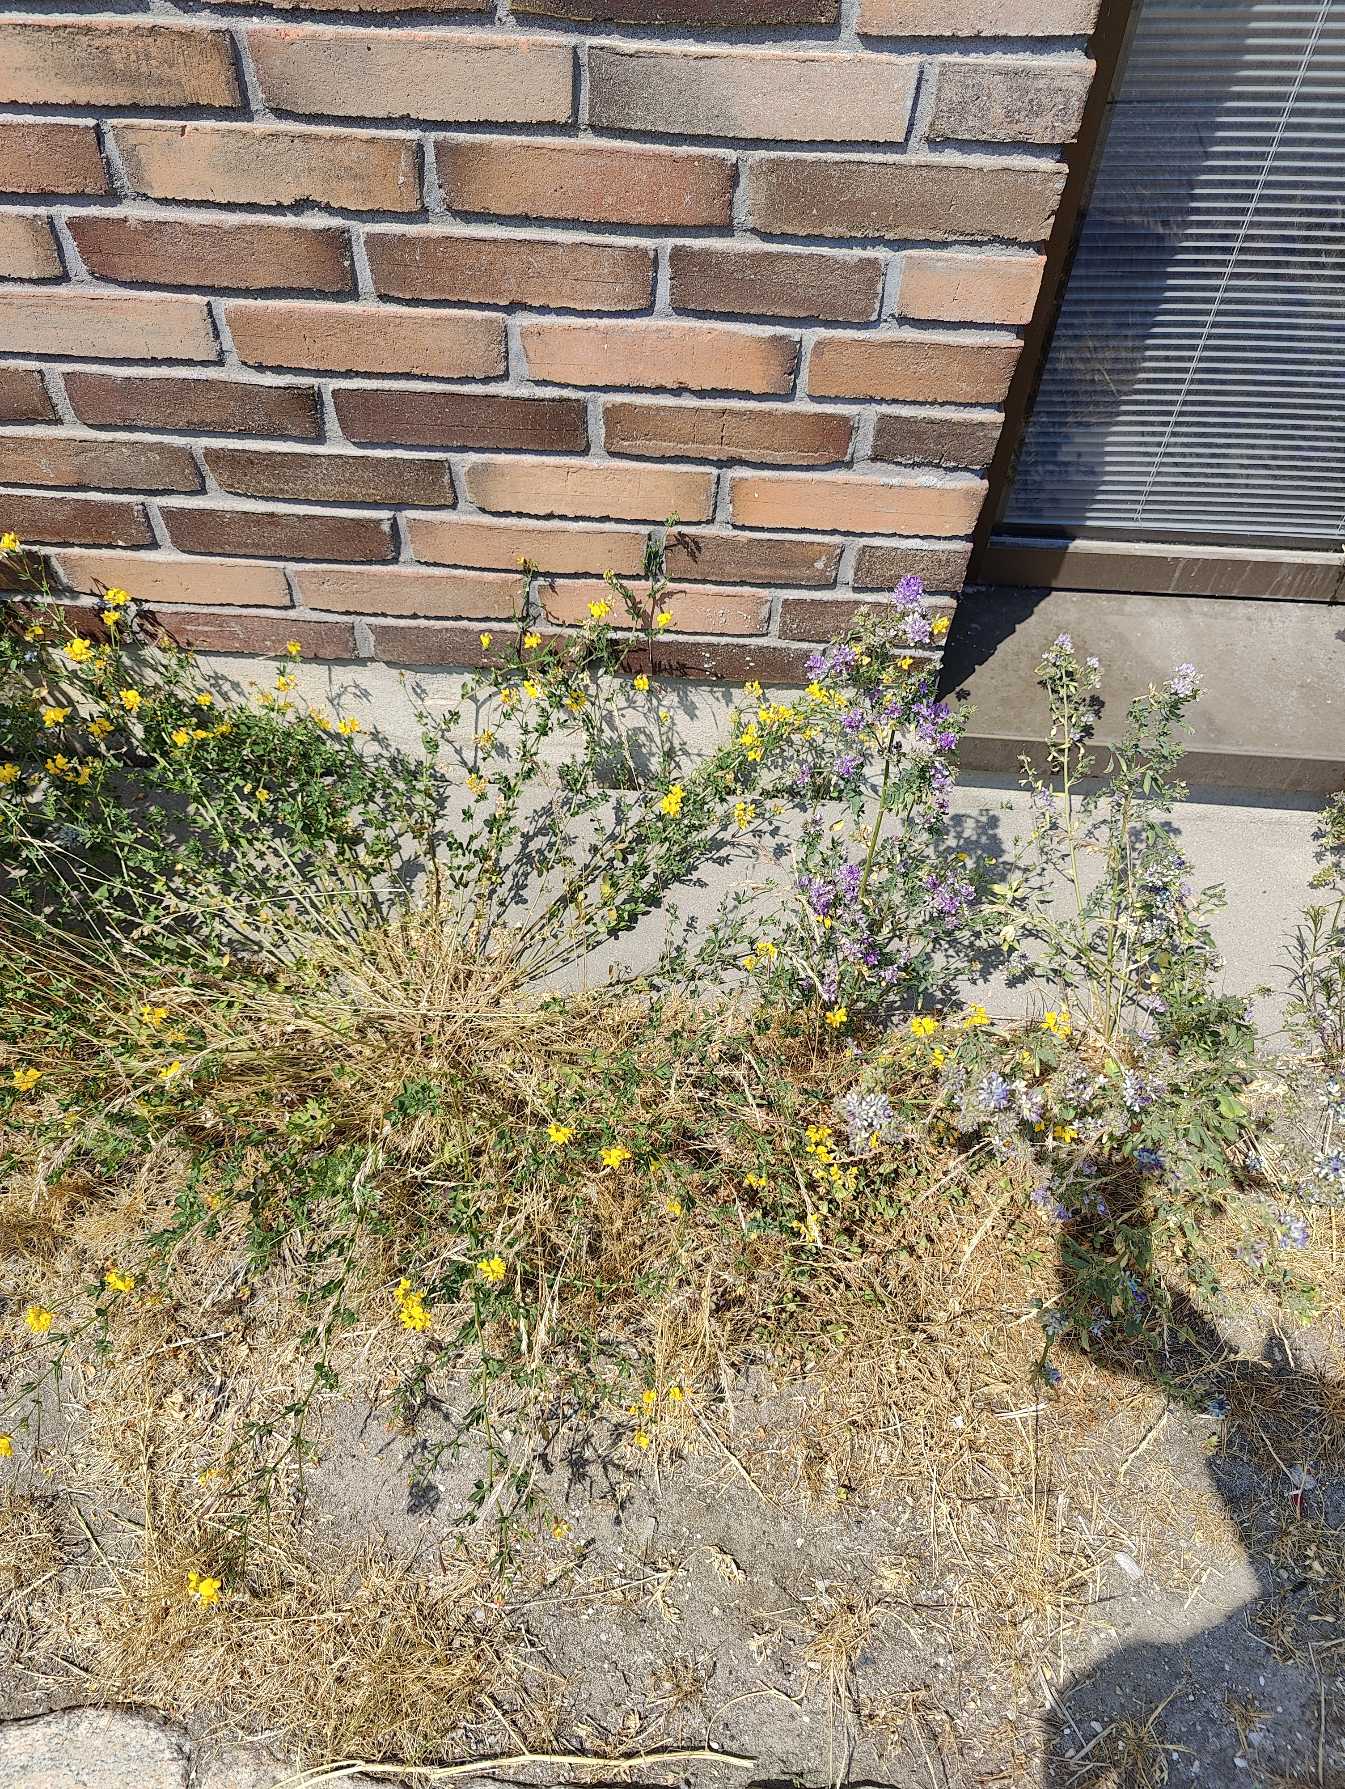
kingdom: Plantae
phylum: Tracheophyta
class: Magnoliopsida
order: Fabales
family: Fabaceae
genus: Lotus
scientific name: Lotus corniculatus
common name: Almindelig kællingetand
